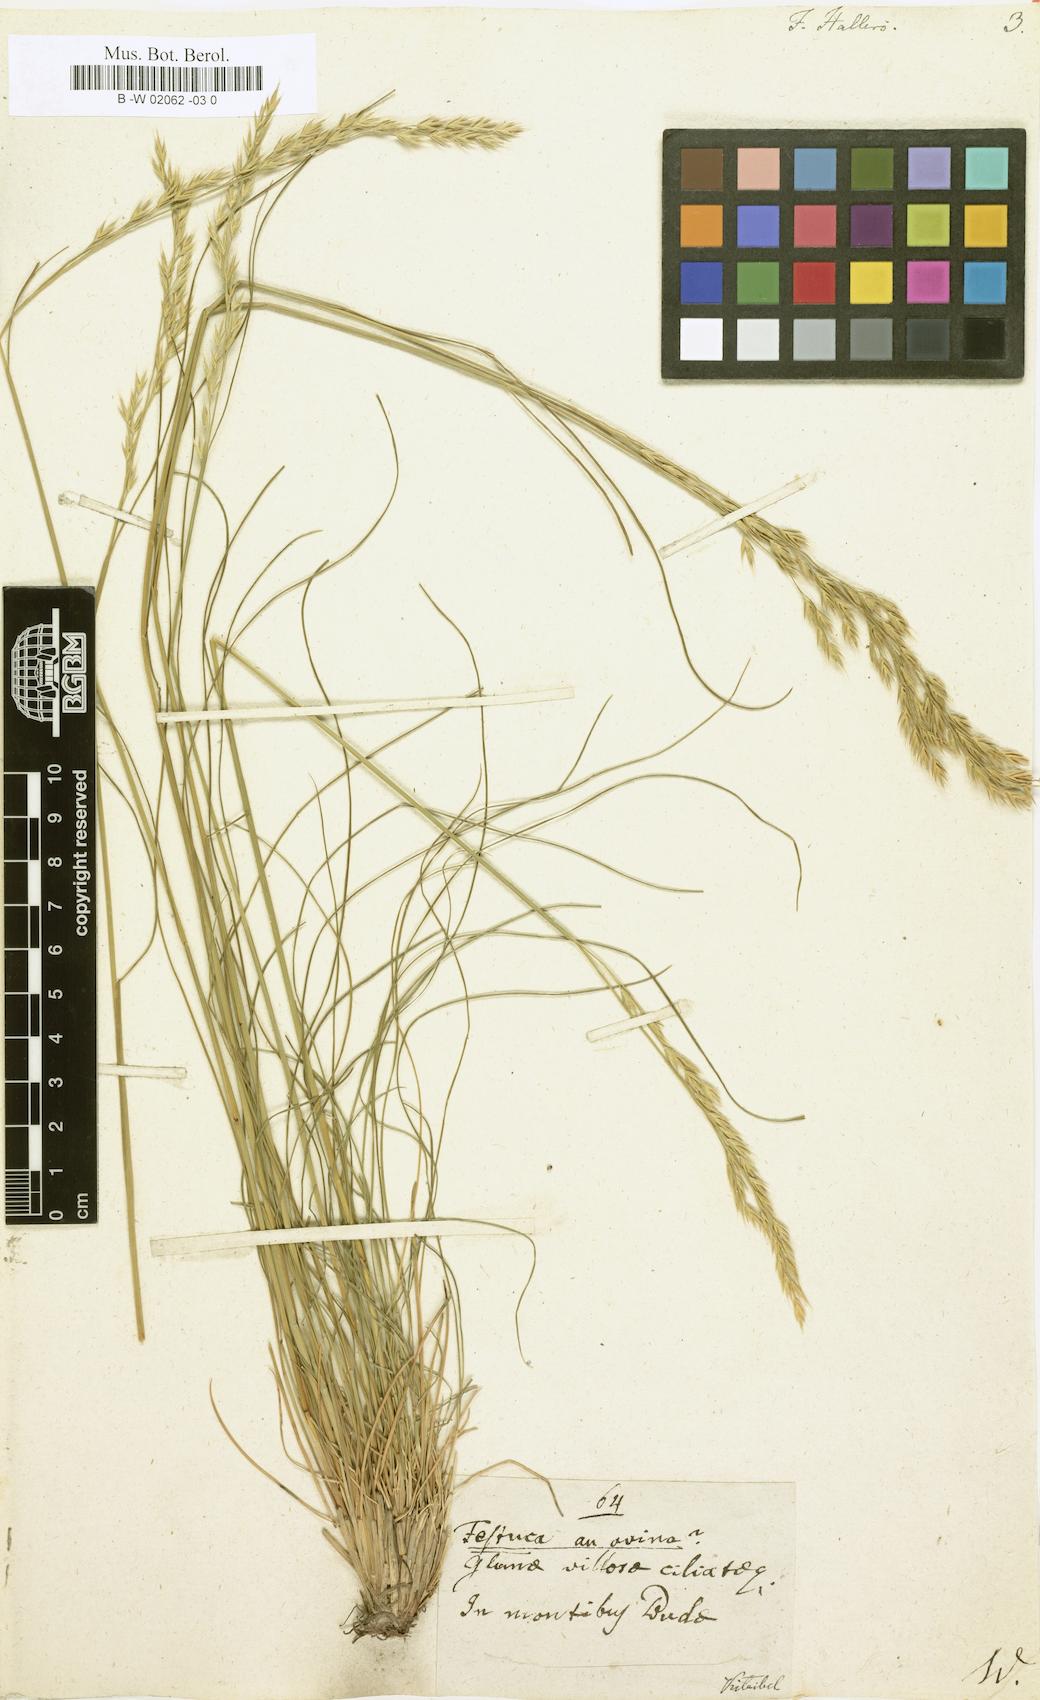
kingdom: Plantae
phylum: Tracheophyta
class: Liliopsida
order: Poales
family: Poaceae
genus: Festuca
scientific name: Festuca halleri
